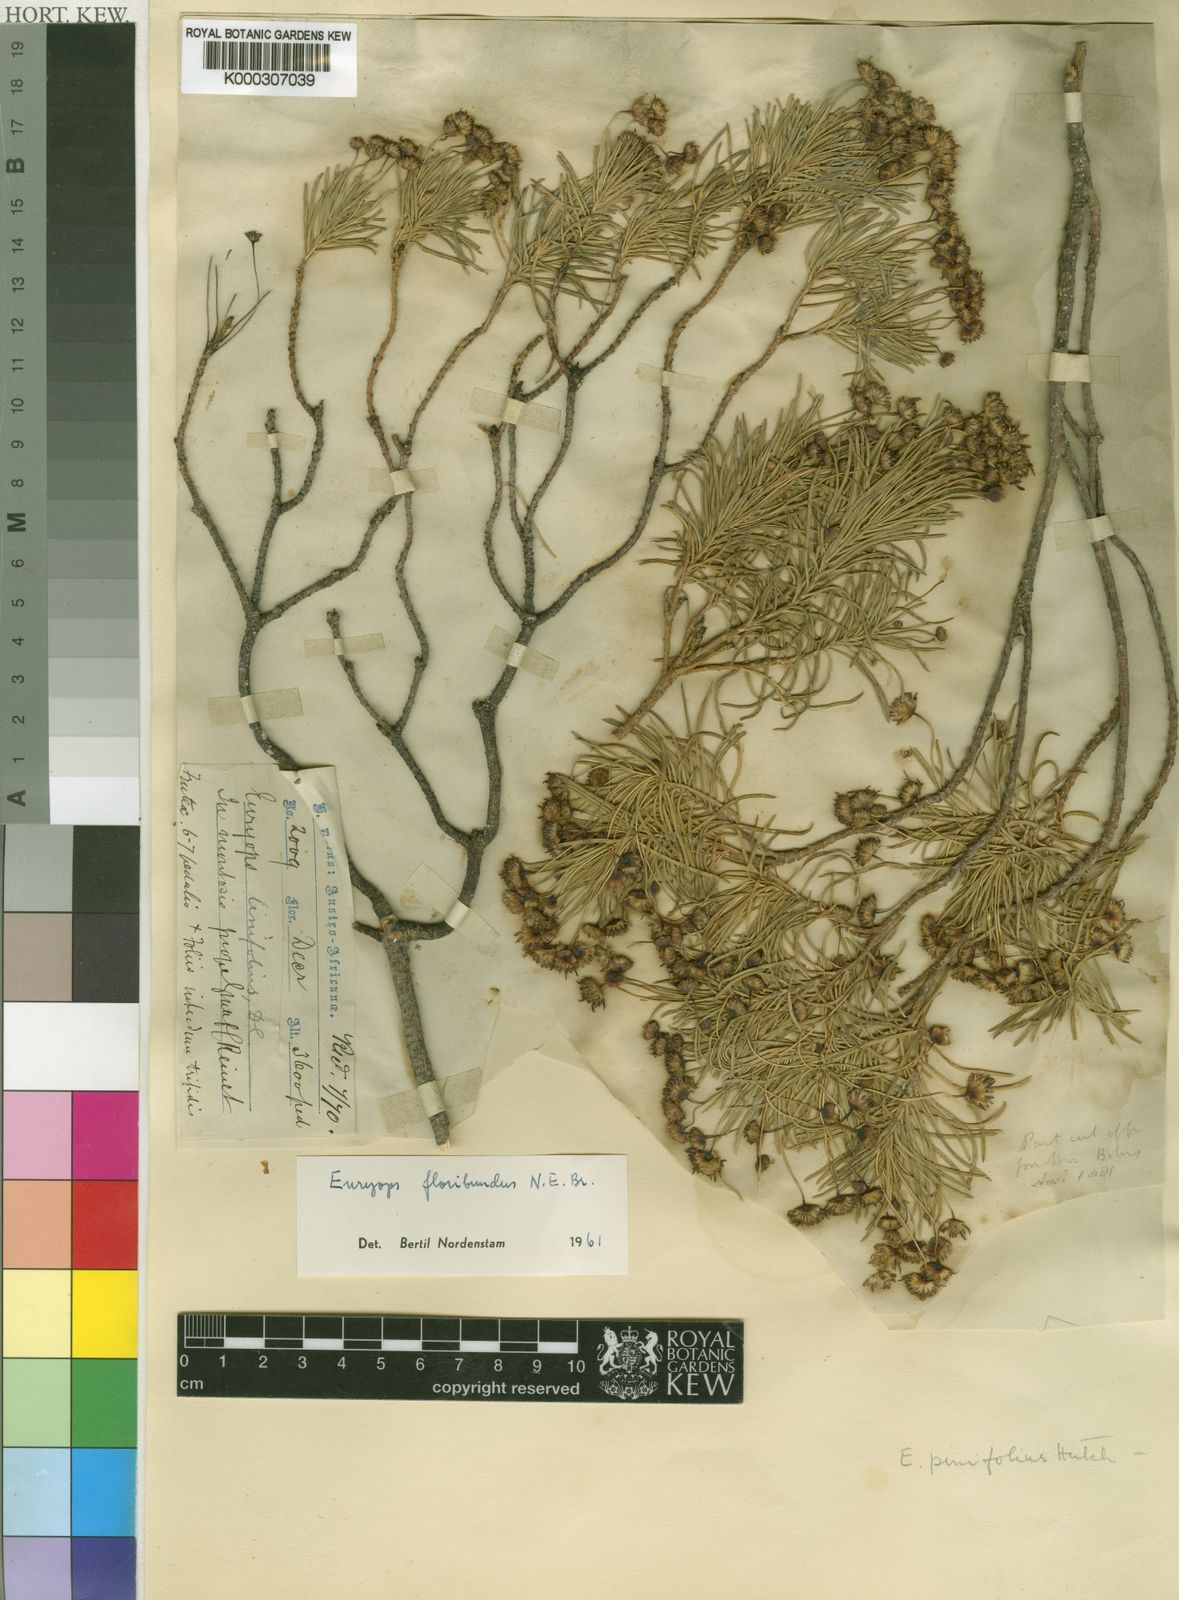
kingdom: Plantae
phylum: Tracheophyta
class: Magnoliopsida
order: Asterales
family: Asteraceae
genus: Euryops
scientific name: Euryops floribundus
